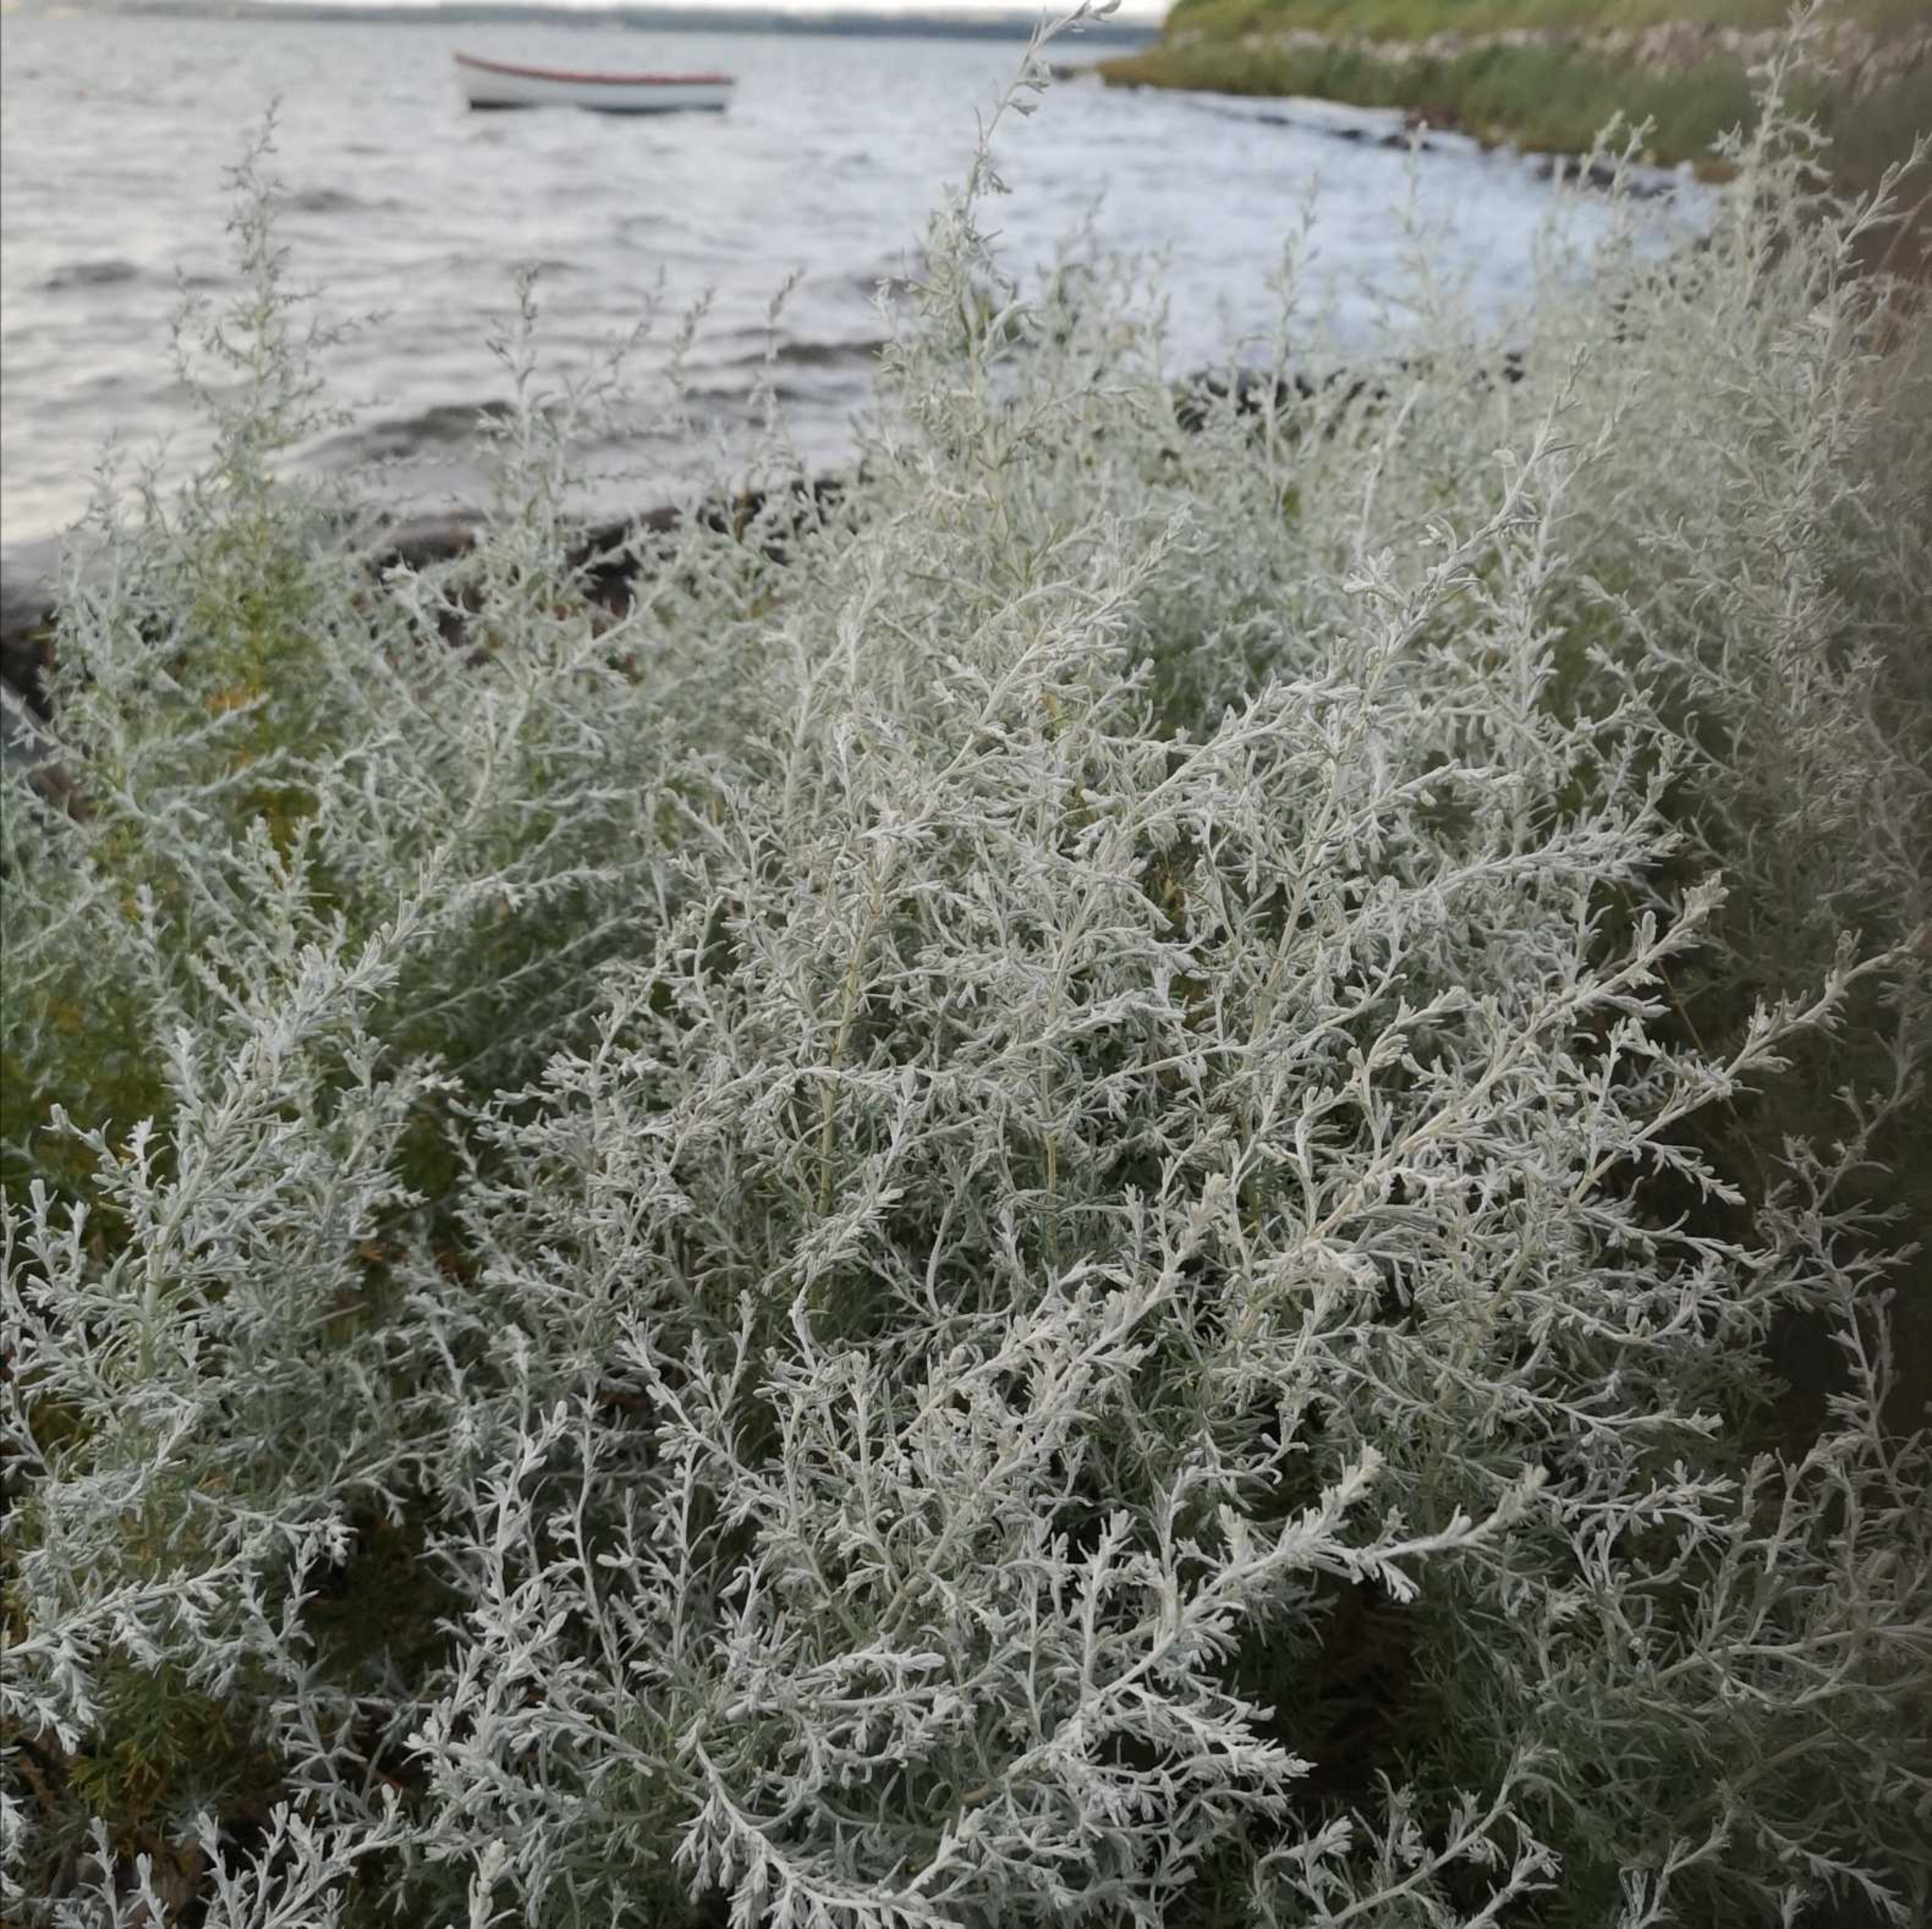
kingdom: Plantae
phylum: Tracheophyta
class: Magnoliopsida
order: Asterales
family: Asteraceae
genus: Artemisia
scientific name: Artemisia maritima
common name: Strandmalurt
